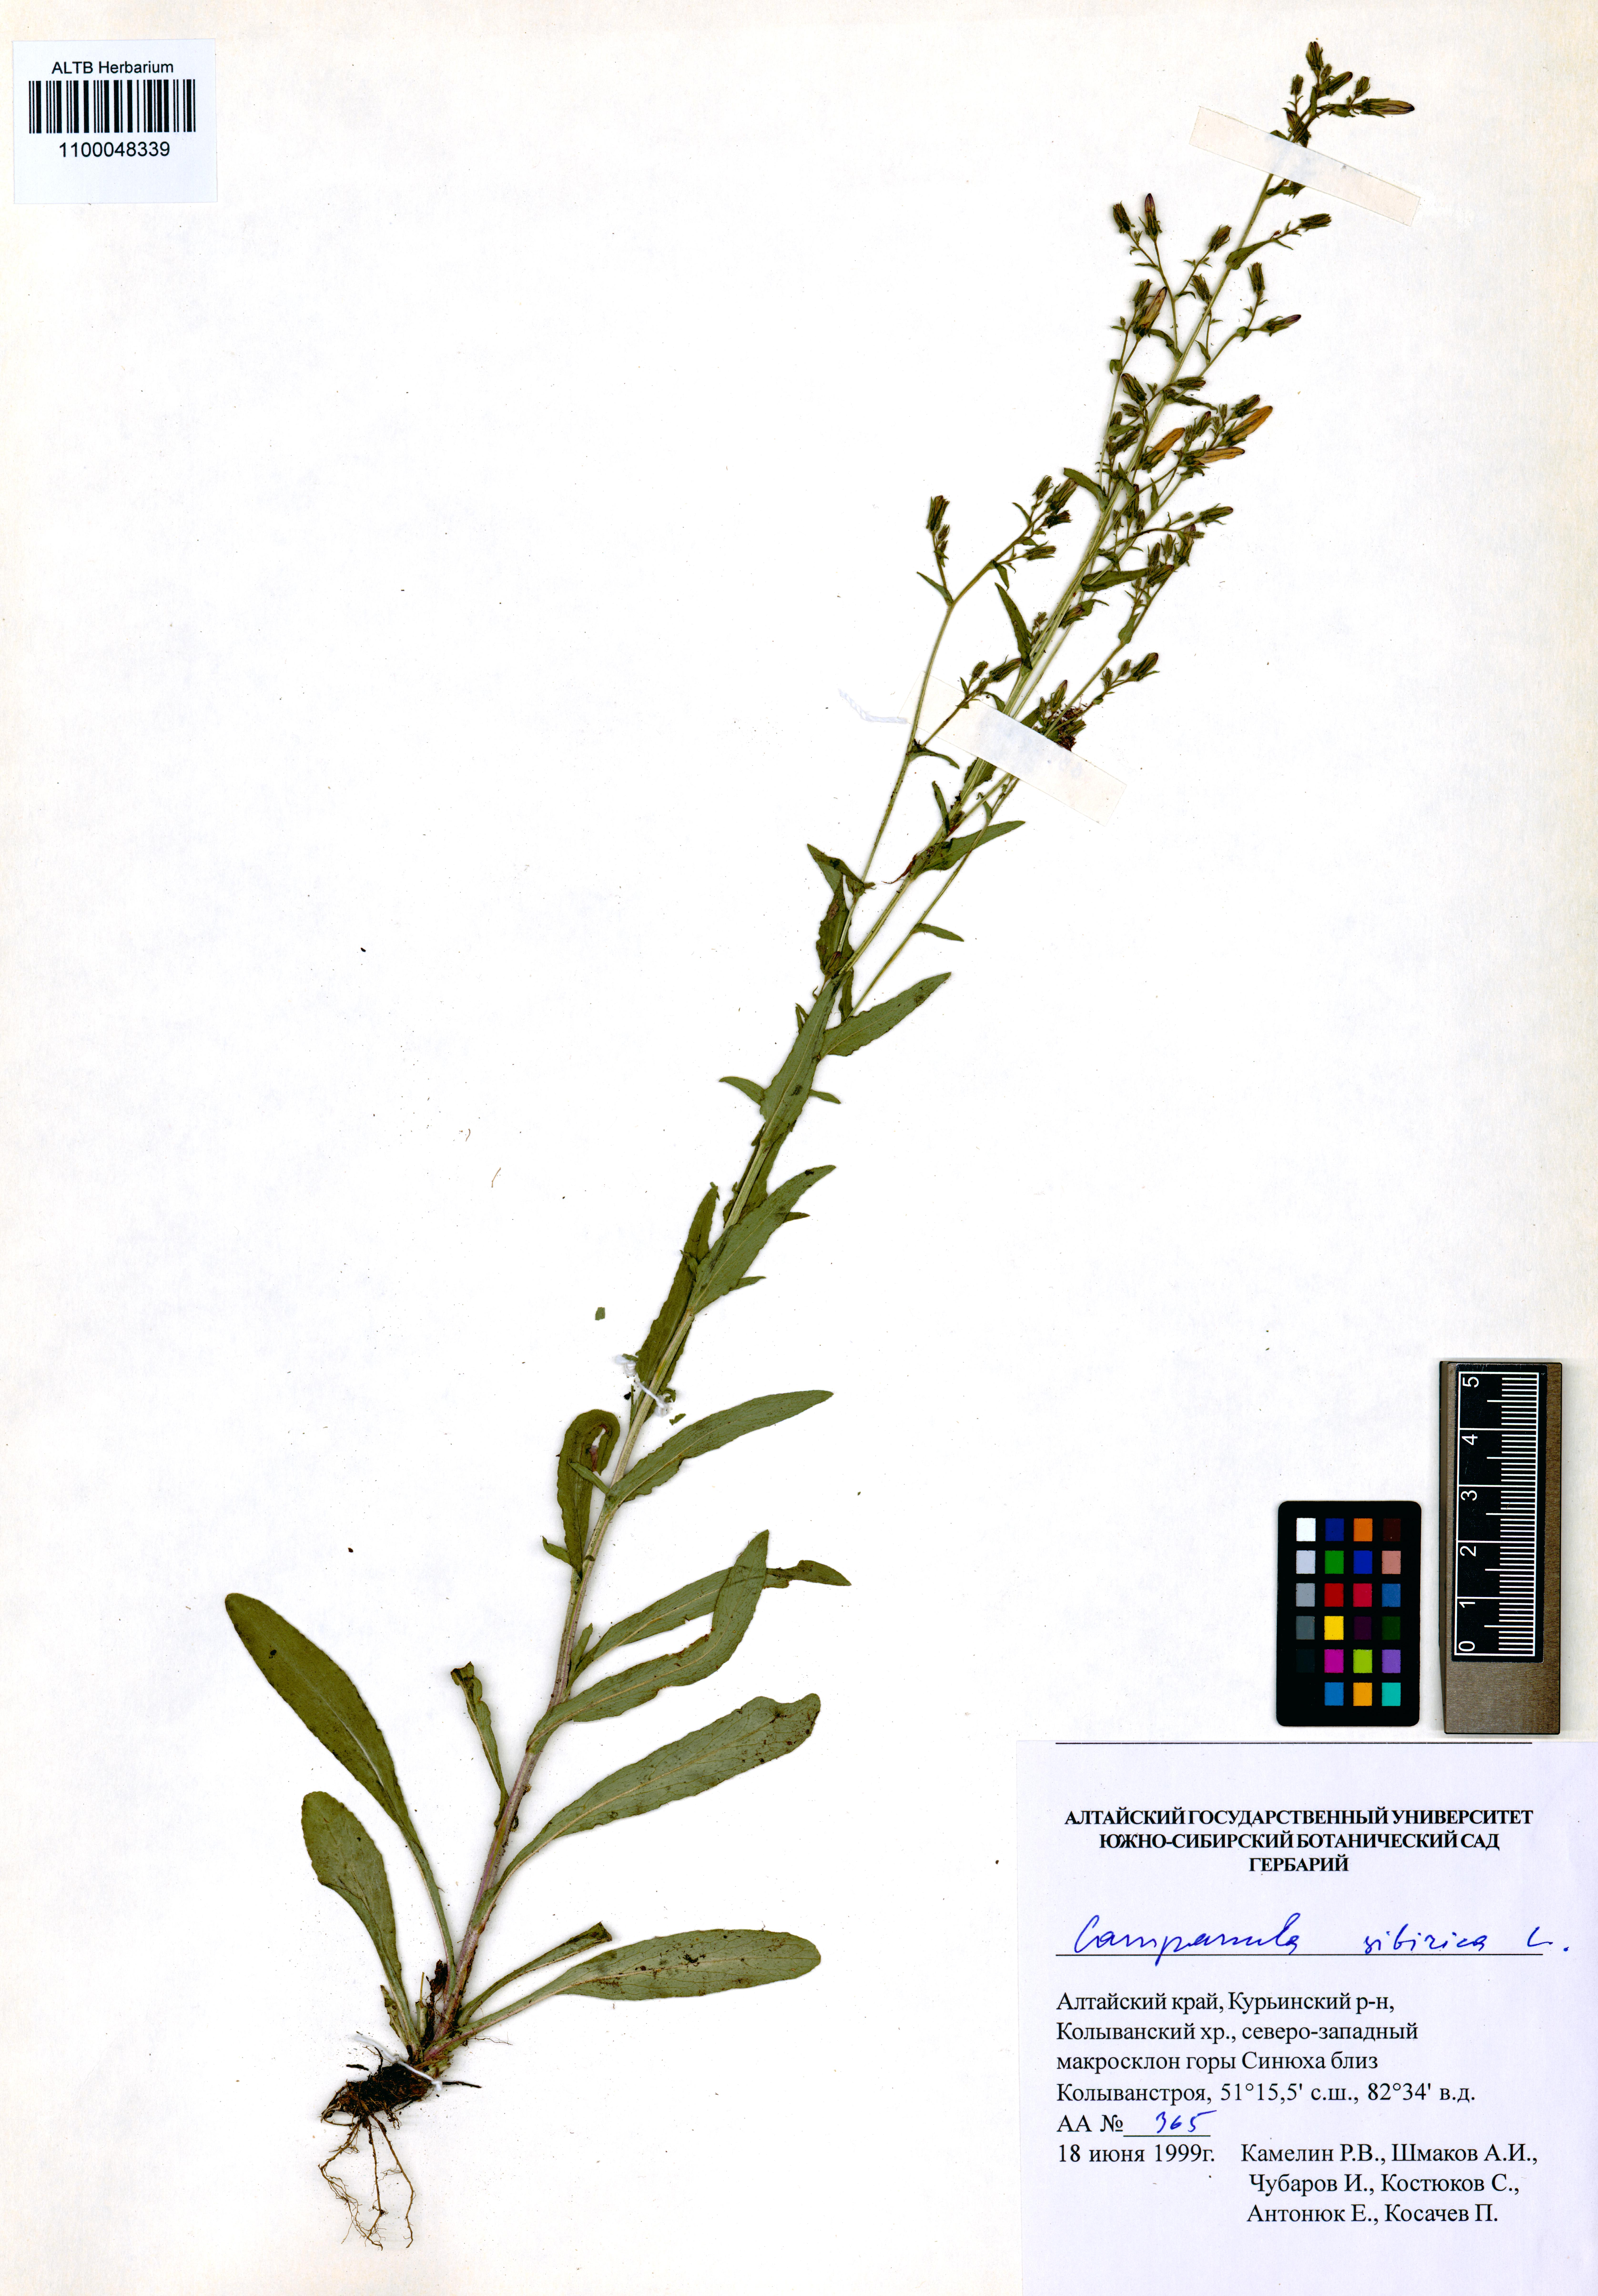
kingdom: Plantae
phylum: Tracheophyta
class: Magnoliopsida
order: Asterales
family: Campanulaceae
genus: Campanula
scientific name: Campanula sibirica
